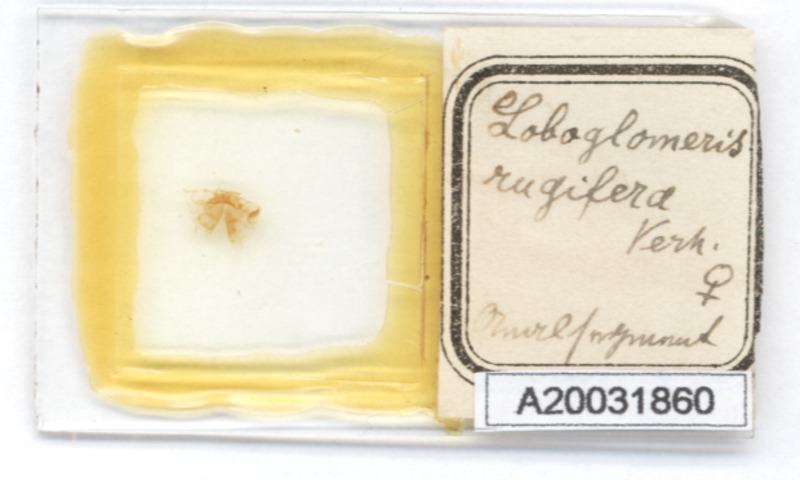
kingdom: Animalia
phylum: Arthropoda
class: Diplopoda
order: Glomerida
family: Glomeridae
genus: Loboglomeris
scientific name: Loboglomeris rugifera
